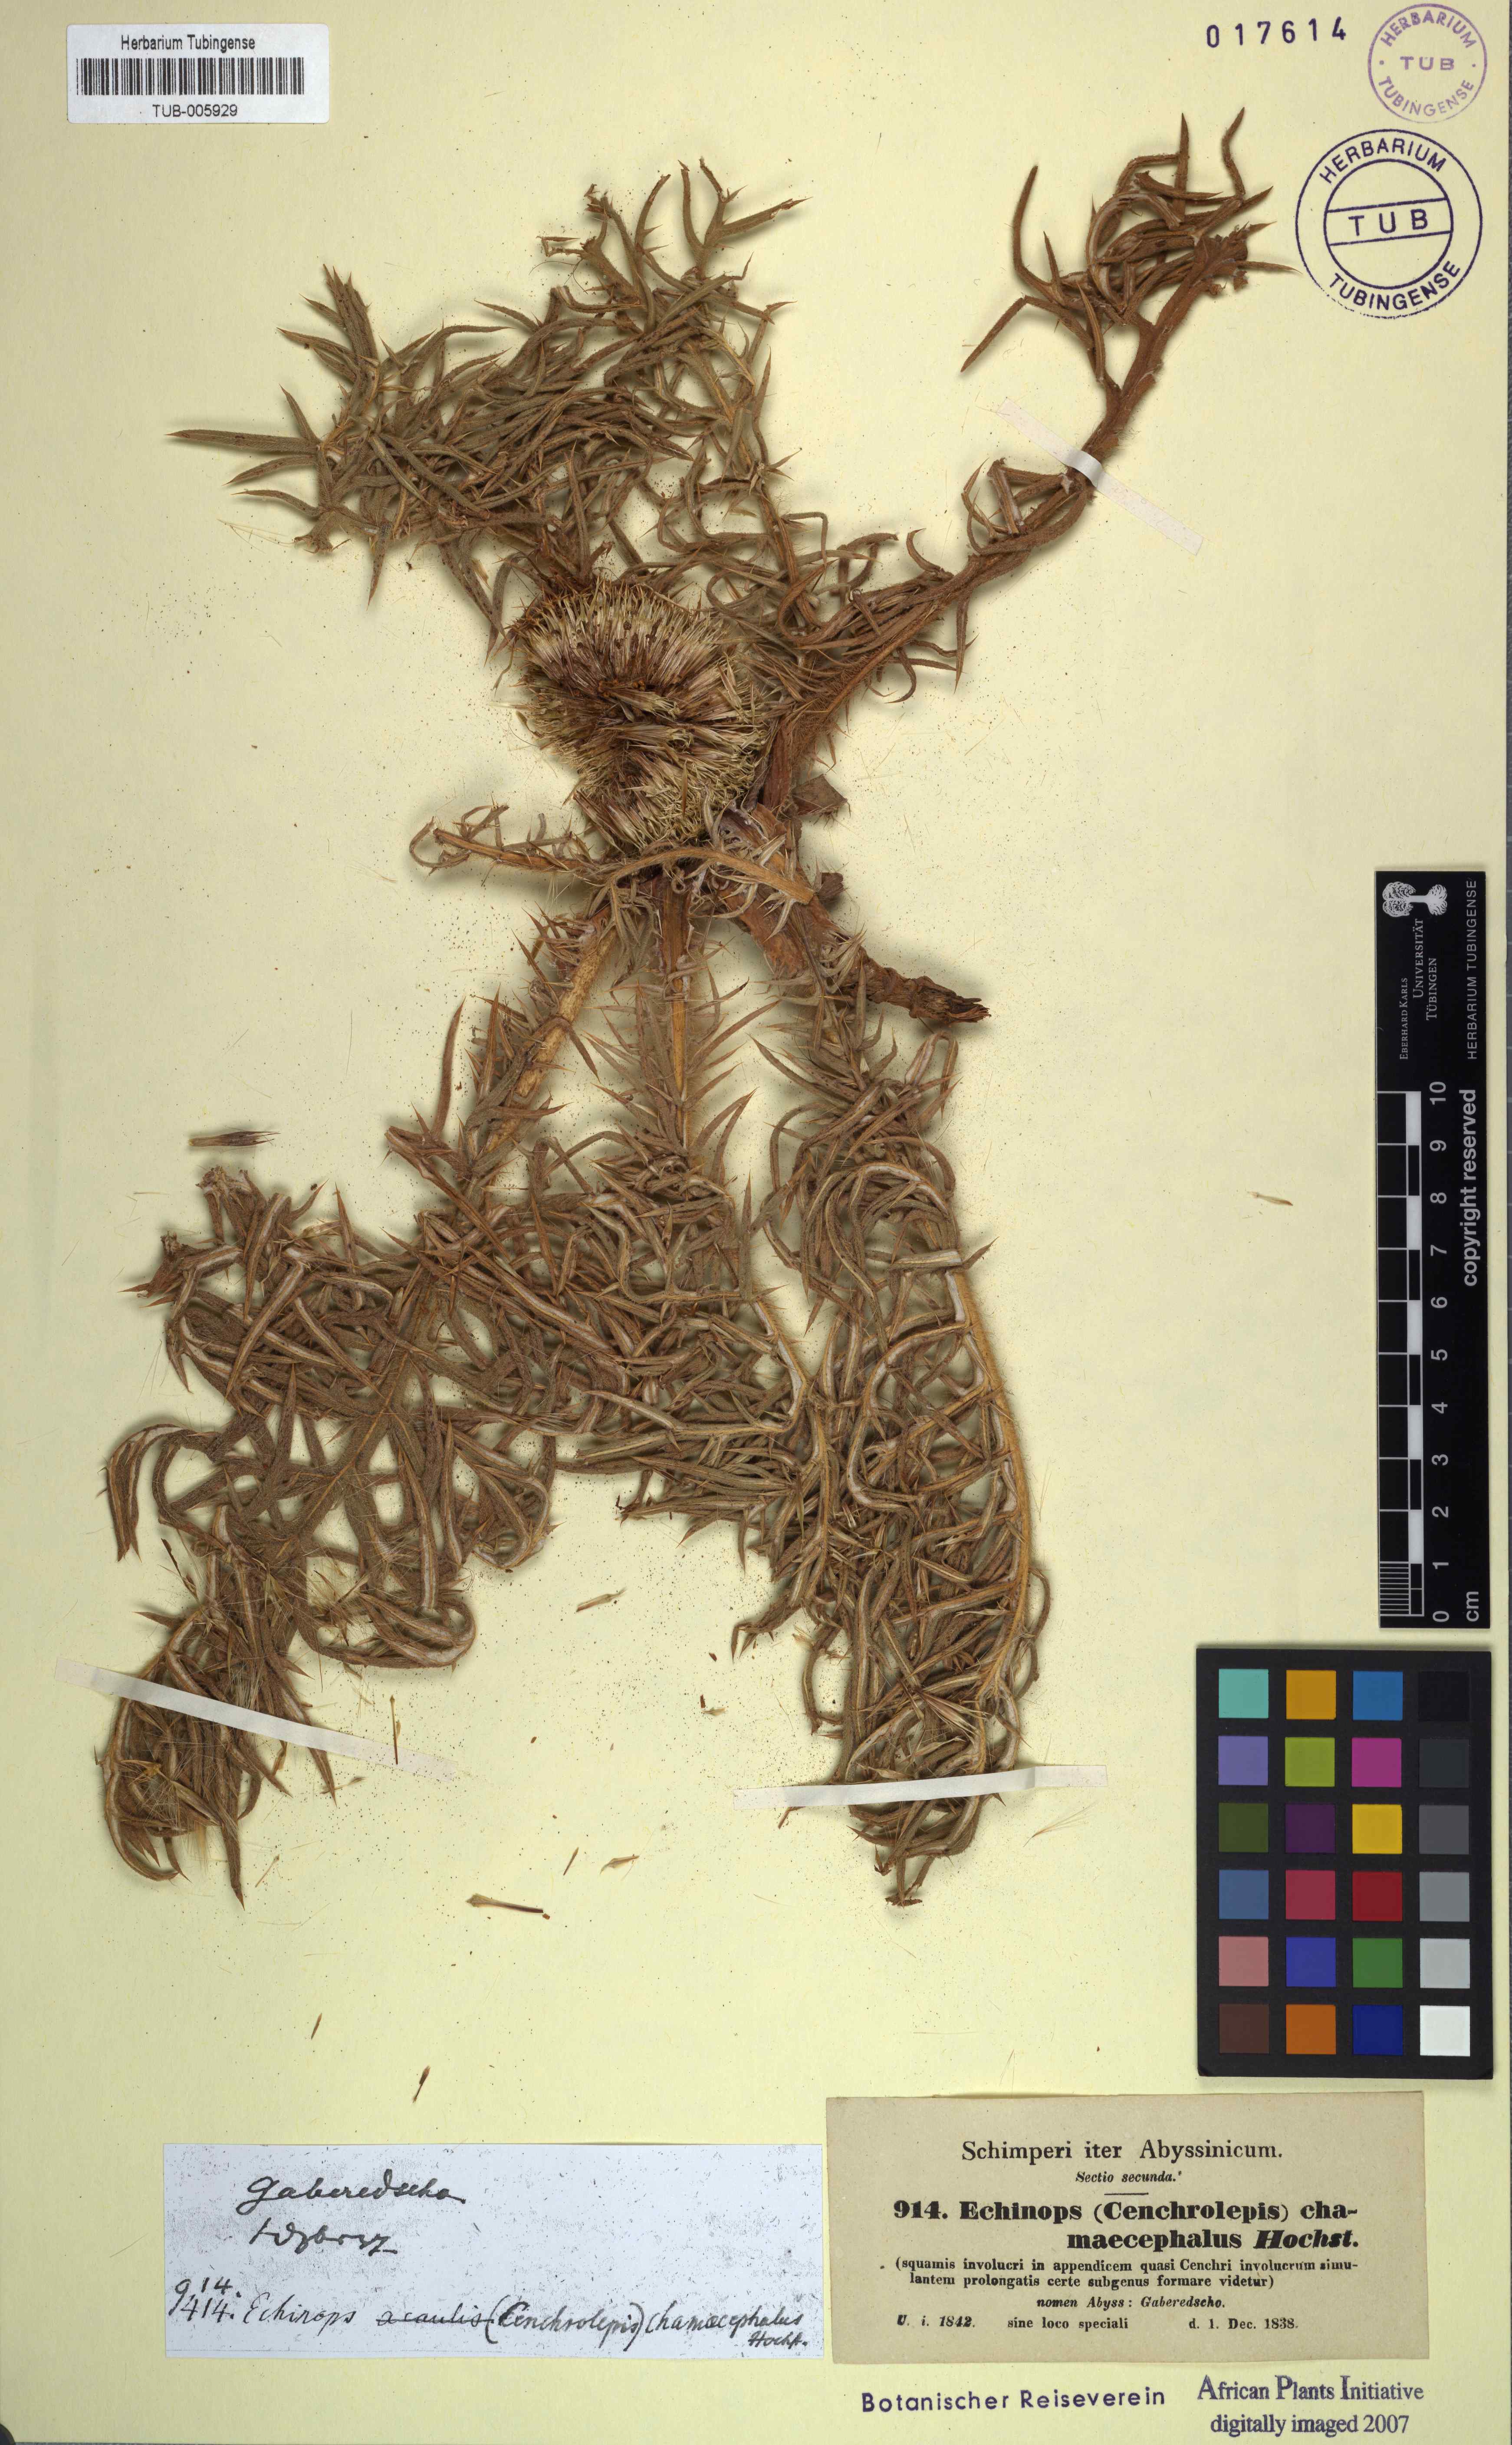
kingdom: Plantae
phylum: Tracheophyta
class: Magnoliopsida
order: Asterales
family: Asteraceae
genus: Echinops
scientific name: Echinops hispidus
